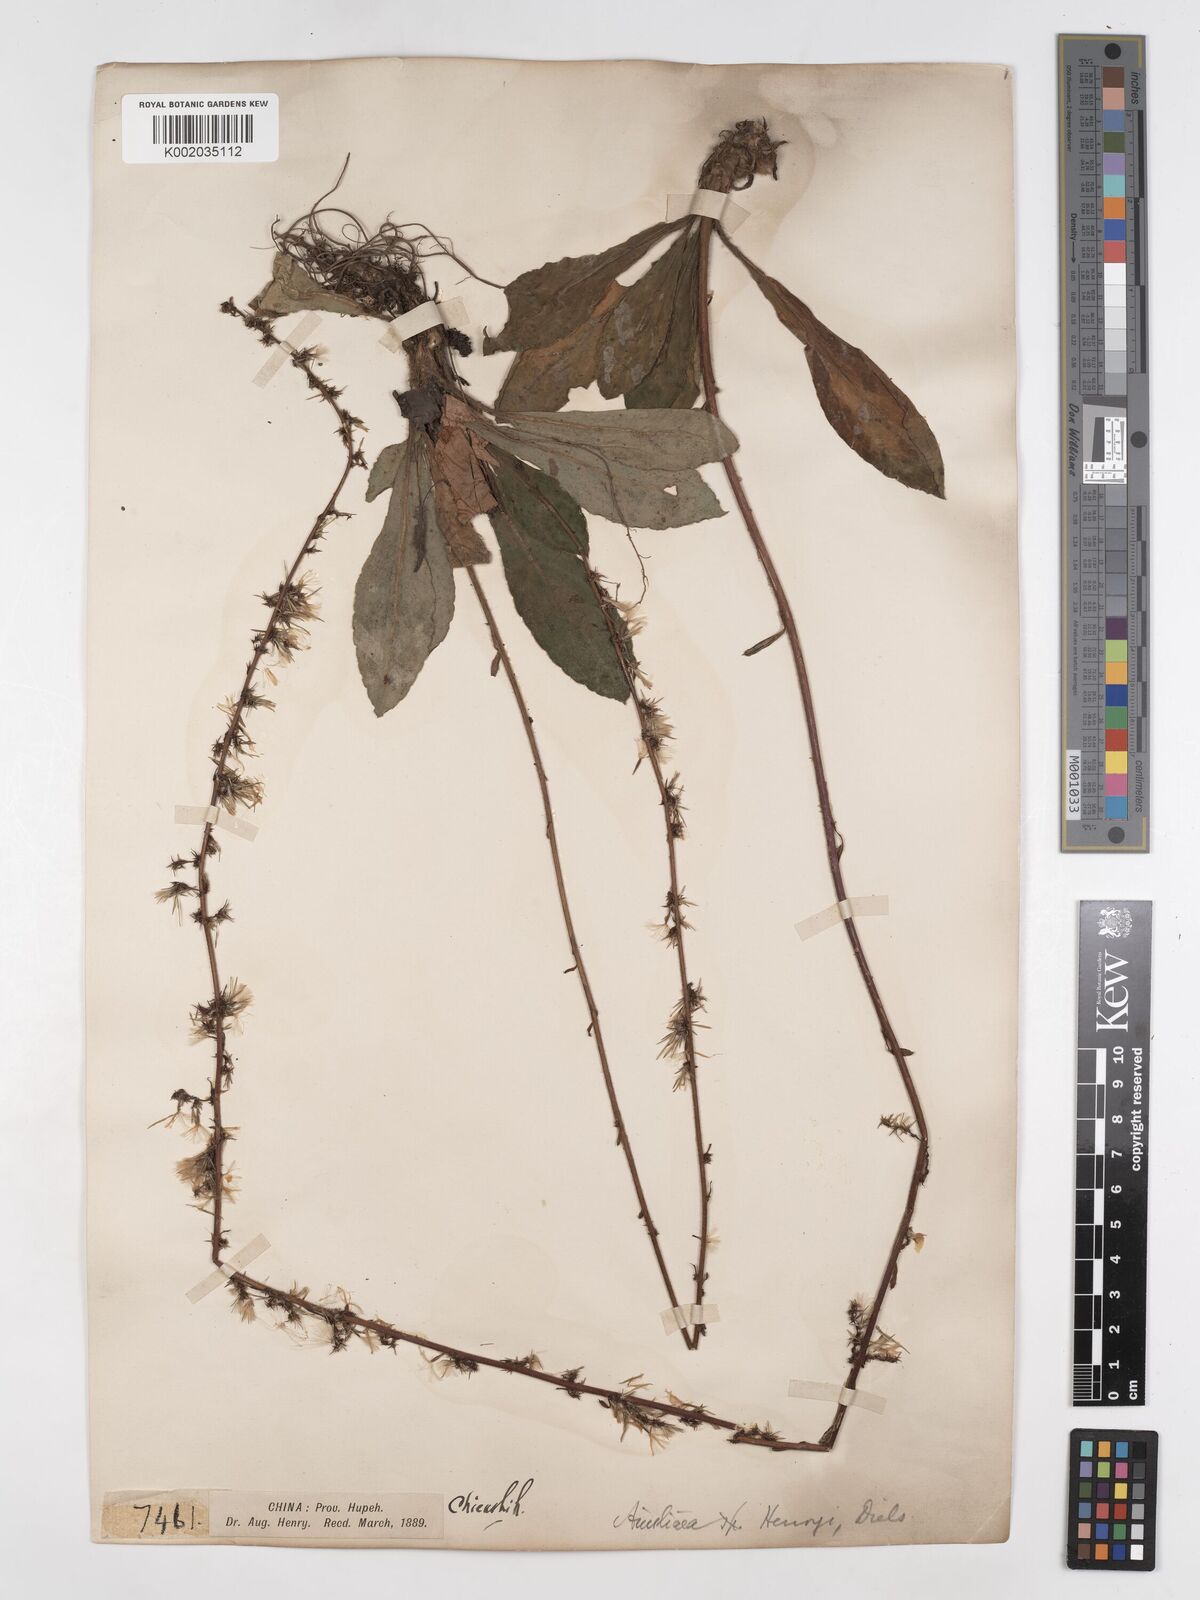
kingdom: Plantae
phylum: Tracheophyta
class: Magnoliopsida
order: Asterales
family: Asteraceae
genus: Ainsliaea
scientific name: Ainsliaea henryi
